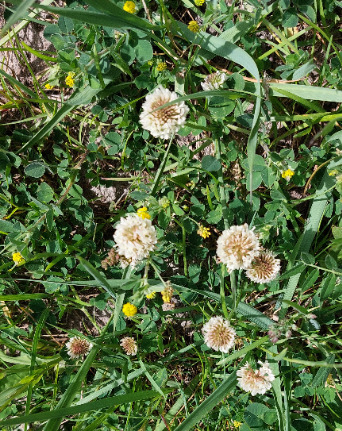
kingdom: Plantae
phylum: Tracheophyta
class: Magnoliopsida
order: Fabales
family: Fabaceae
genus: Trifolium
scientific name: Trifolium repens
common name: Hvid-kløver
